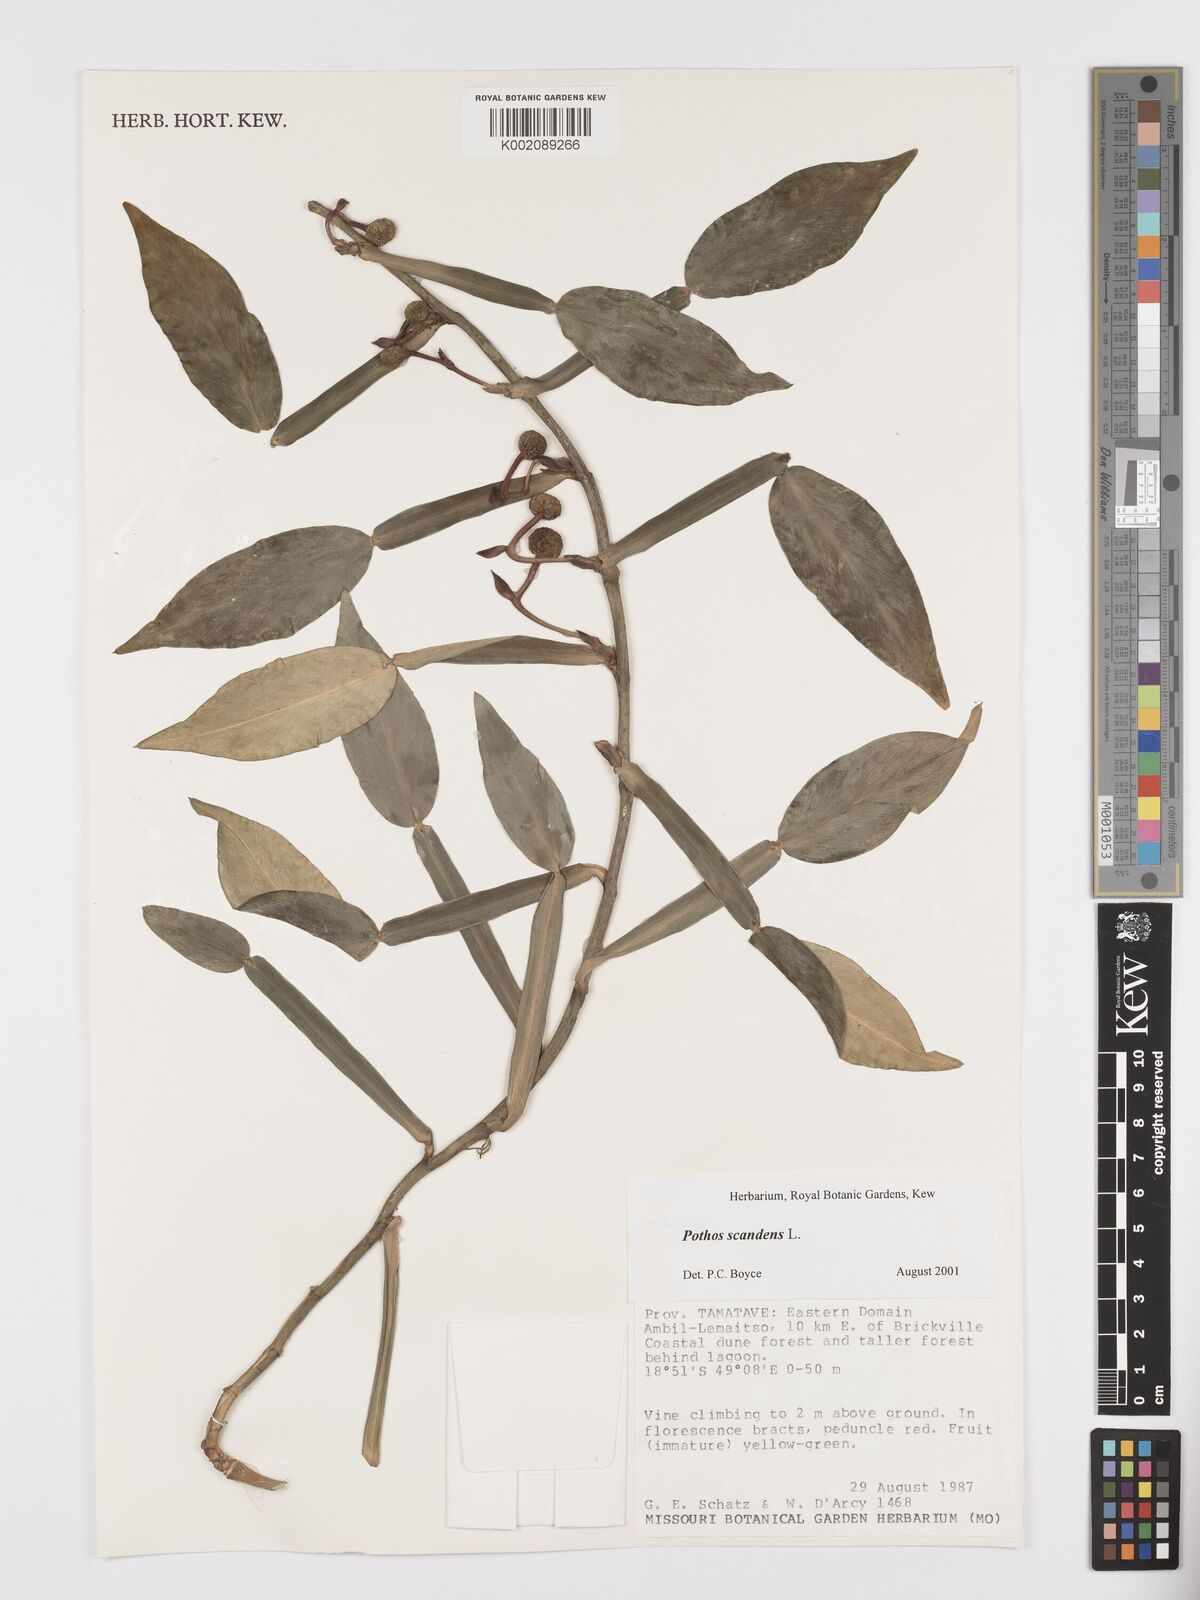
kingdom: Plantae
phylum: Tracheophyta
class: Liliopsida
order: Alismatales
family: Araceae
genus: Pothos
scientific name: Pothos scandens
